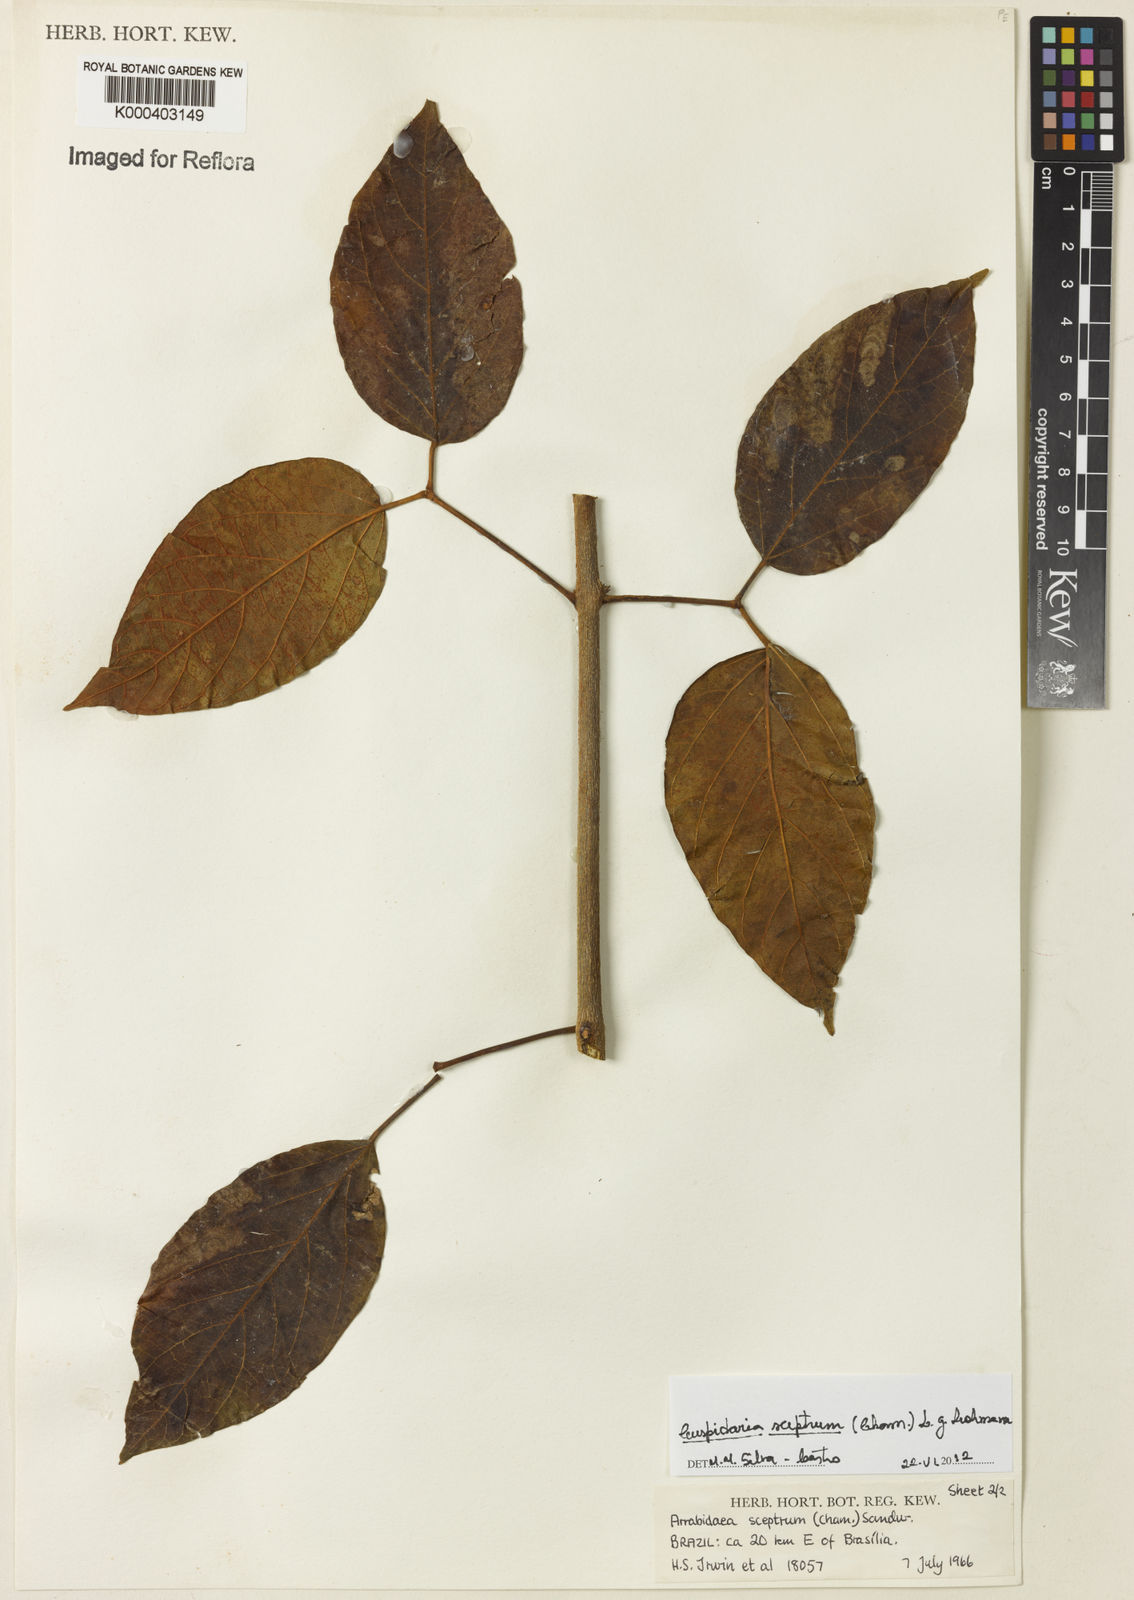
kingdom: Plantae
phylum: Tracheophyta
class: Magnoliopsida
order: Lamiales
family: Bignoniaceae
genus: Cuspidaria
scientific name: Cuspidaria sceptrum
